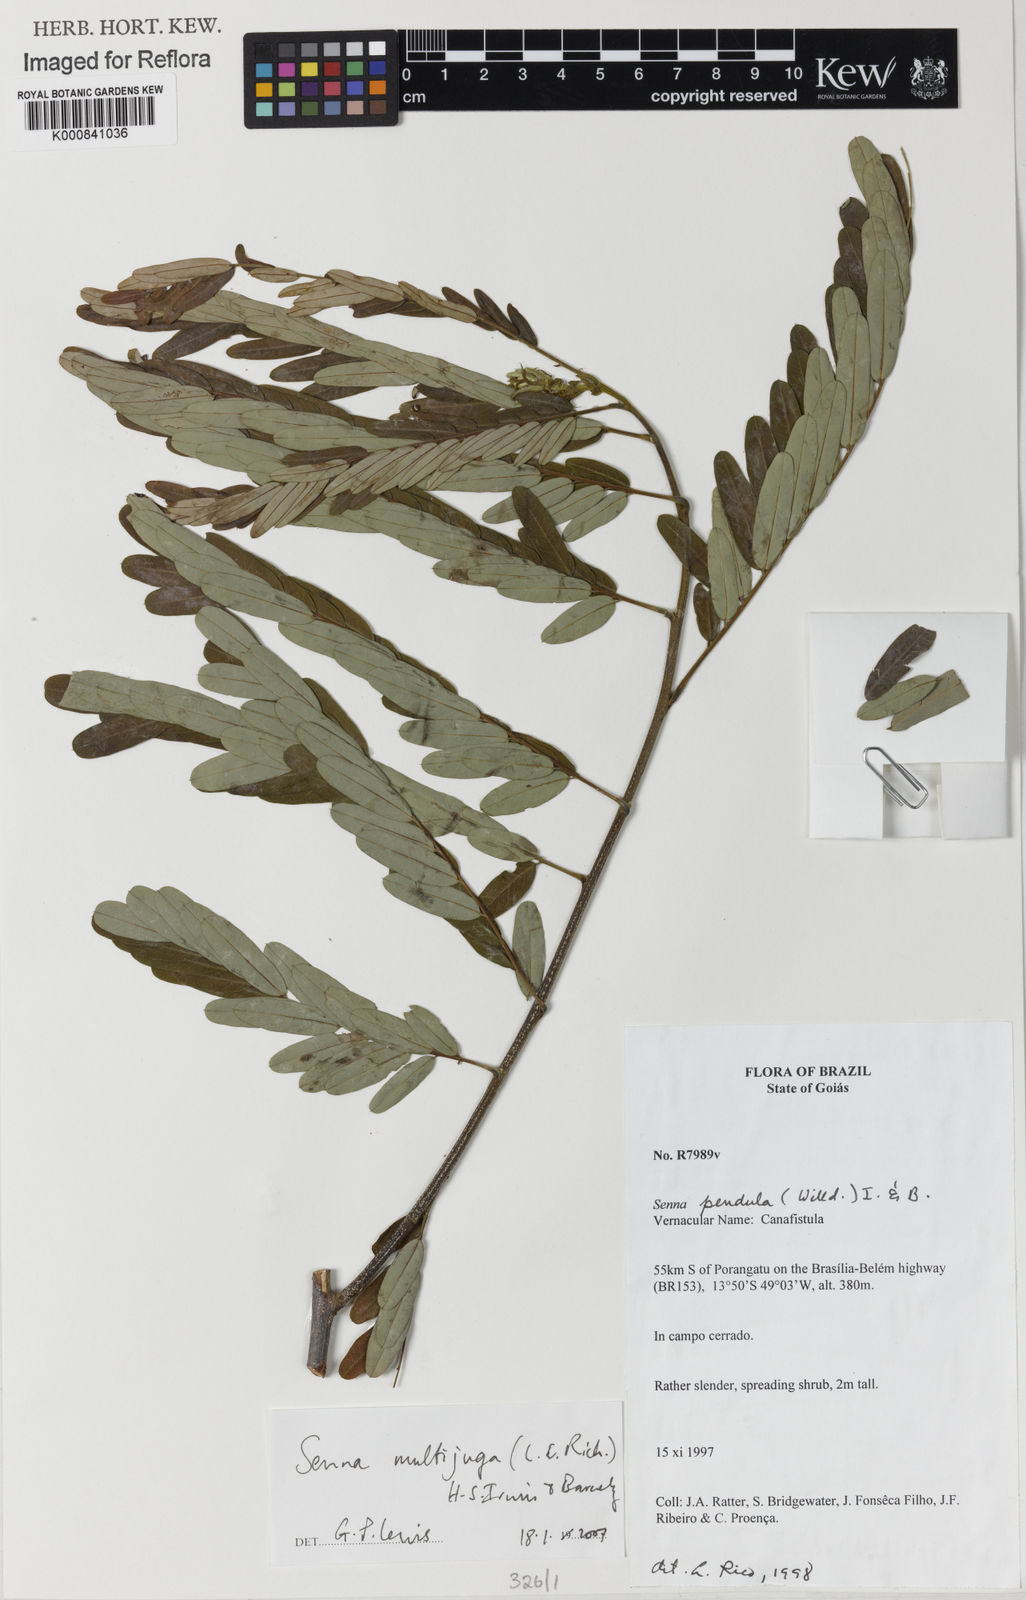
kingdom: Plantae
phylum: Tracheophyta
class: Magnoliopsida
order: Fabales
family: Fabaceae
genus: Senna
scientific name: Senna multijuga
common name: False sicklepod
